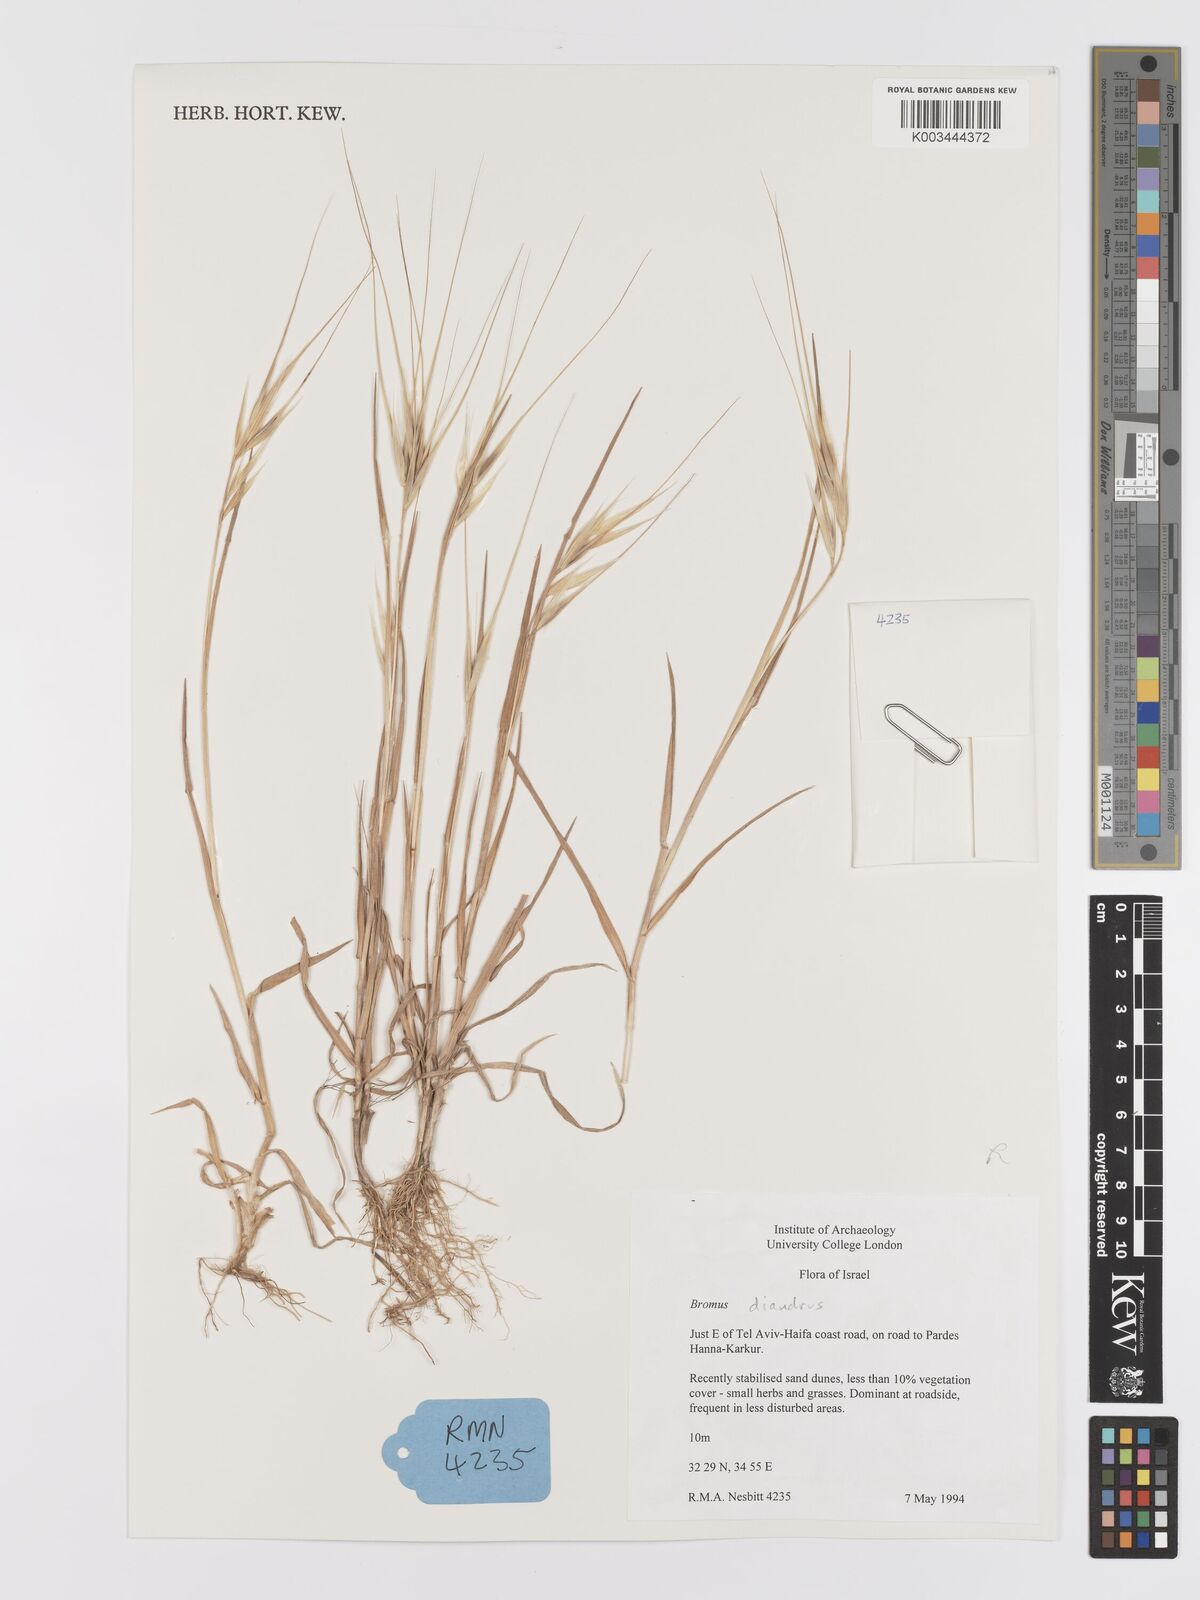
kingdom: Plantae
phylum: Tracheophyta
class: Liliopsida
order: Poales
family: Poaceae
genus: Bromus
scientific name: Bromus
